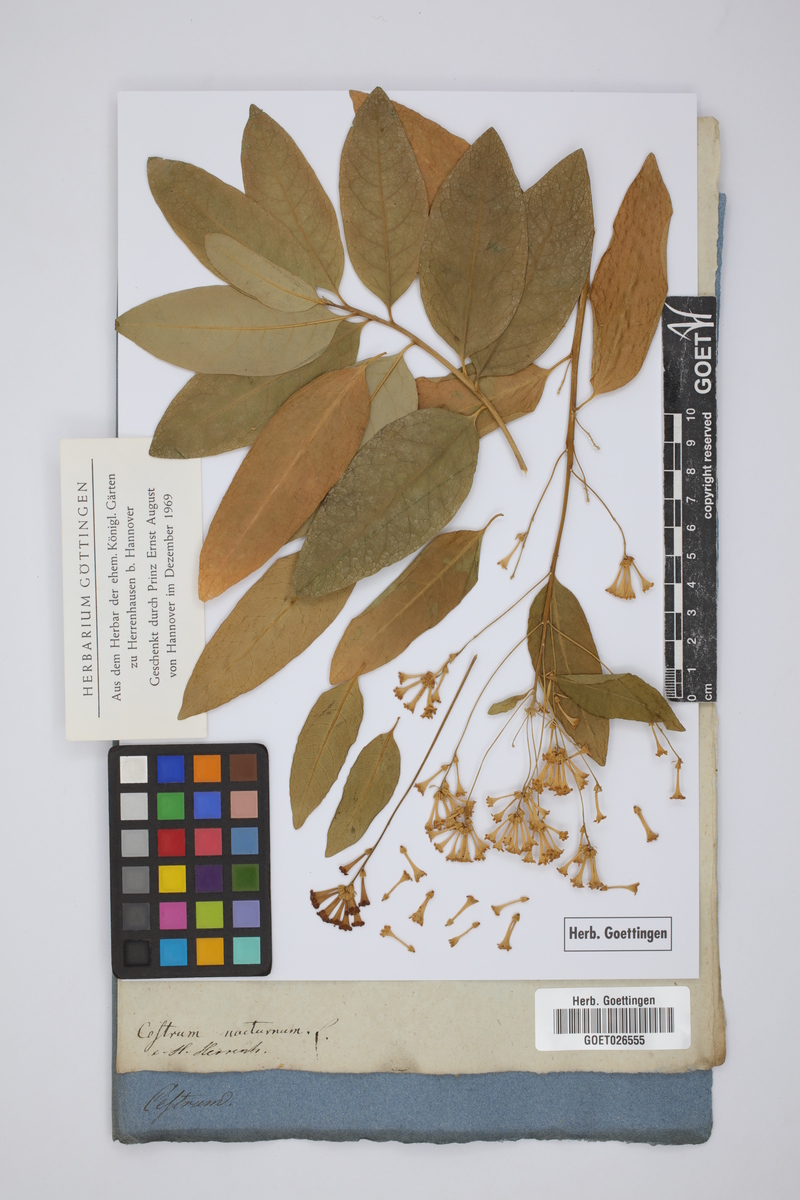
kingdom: Plantae
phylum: Tracheophyta
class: Magnoliopsida
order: Solanales
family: Solanaceae
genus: Cestrum
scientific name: Cestrum nocturnum
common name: Night jessamine
